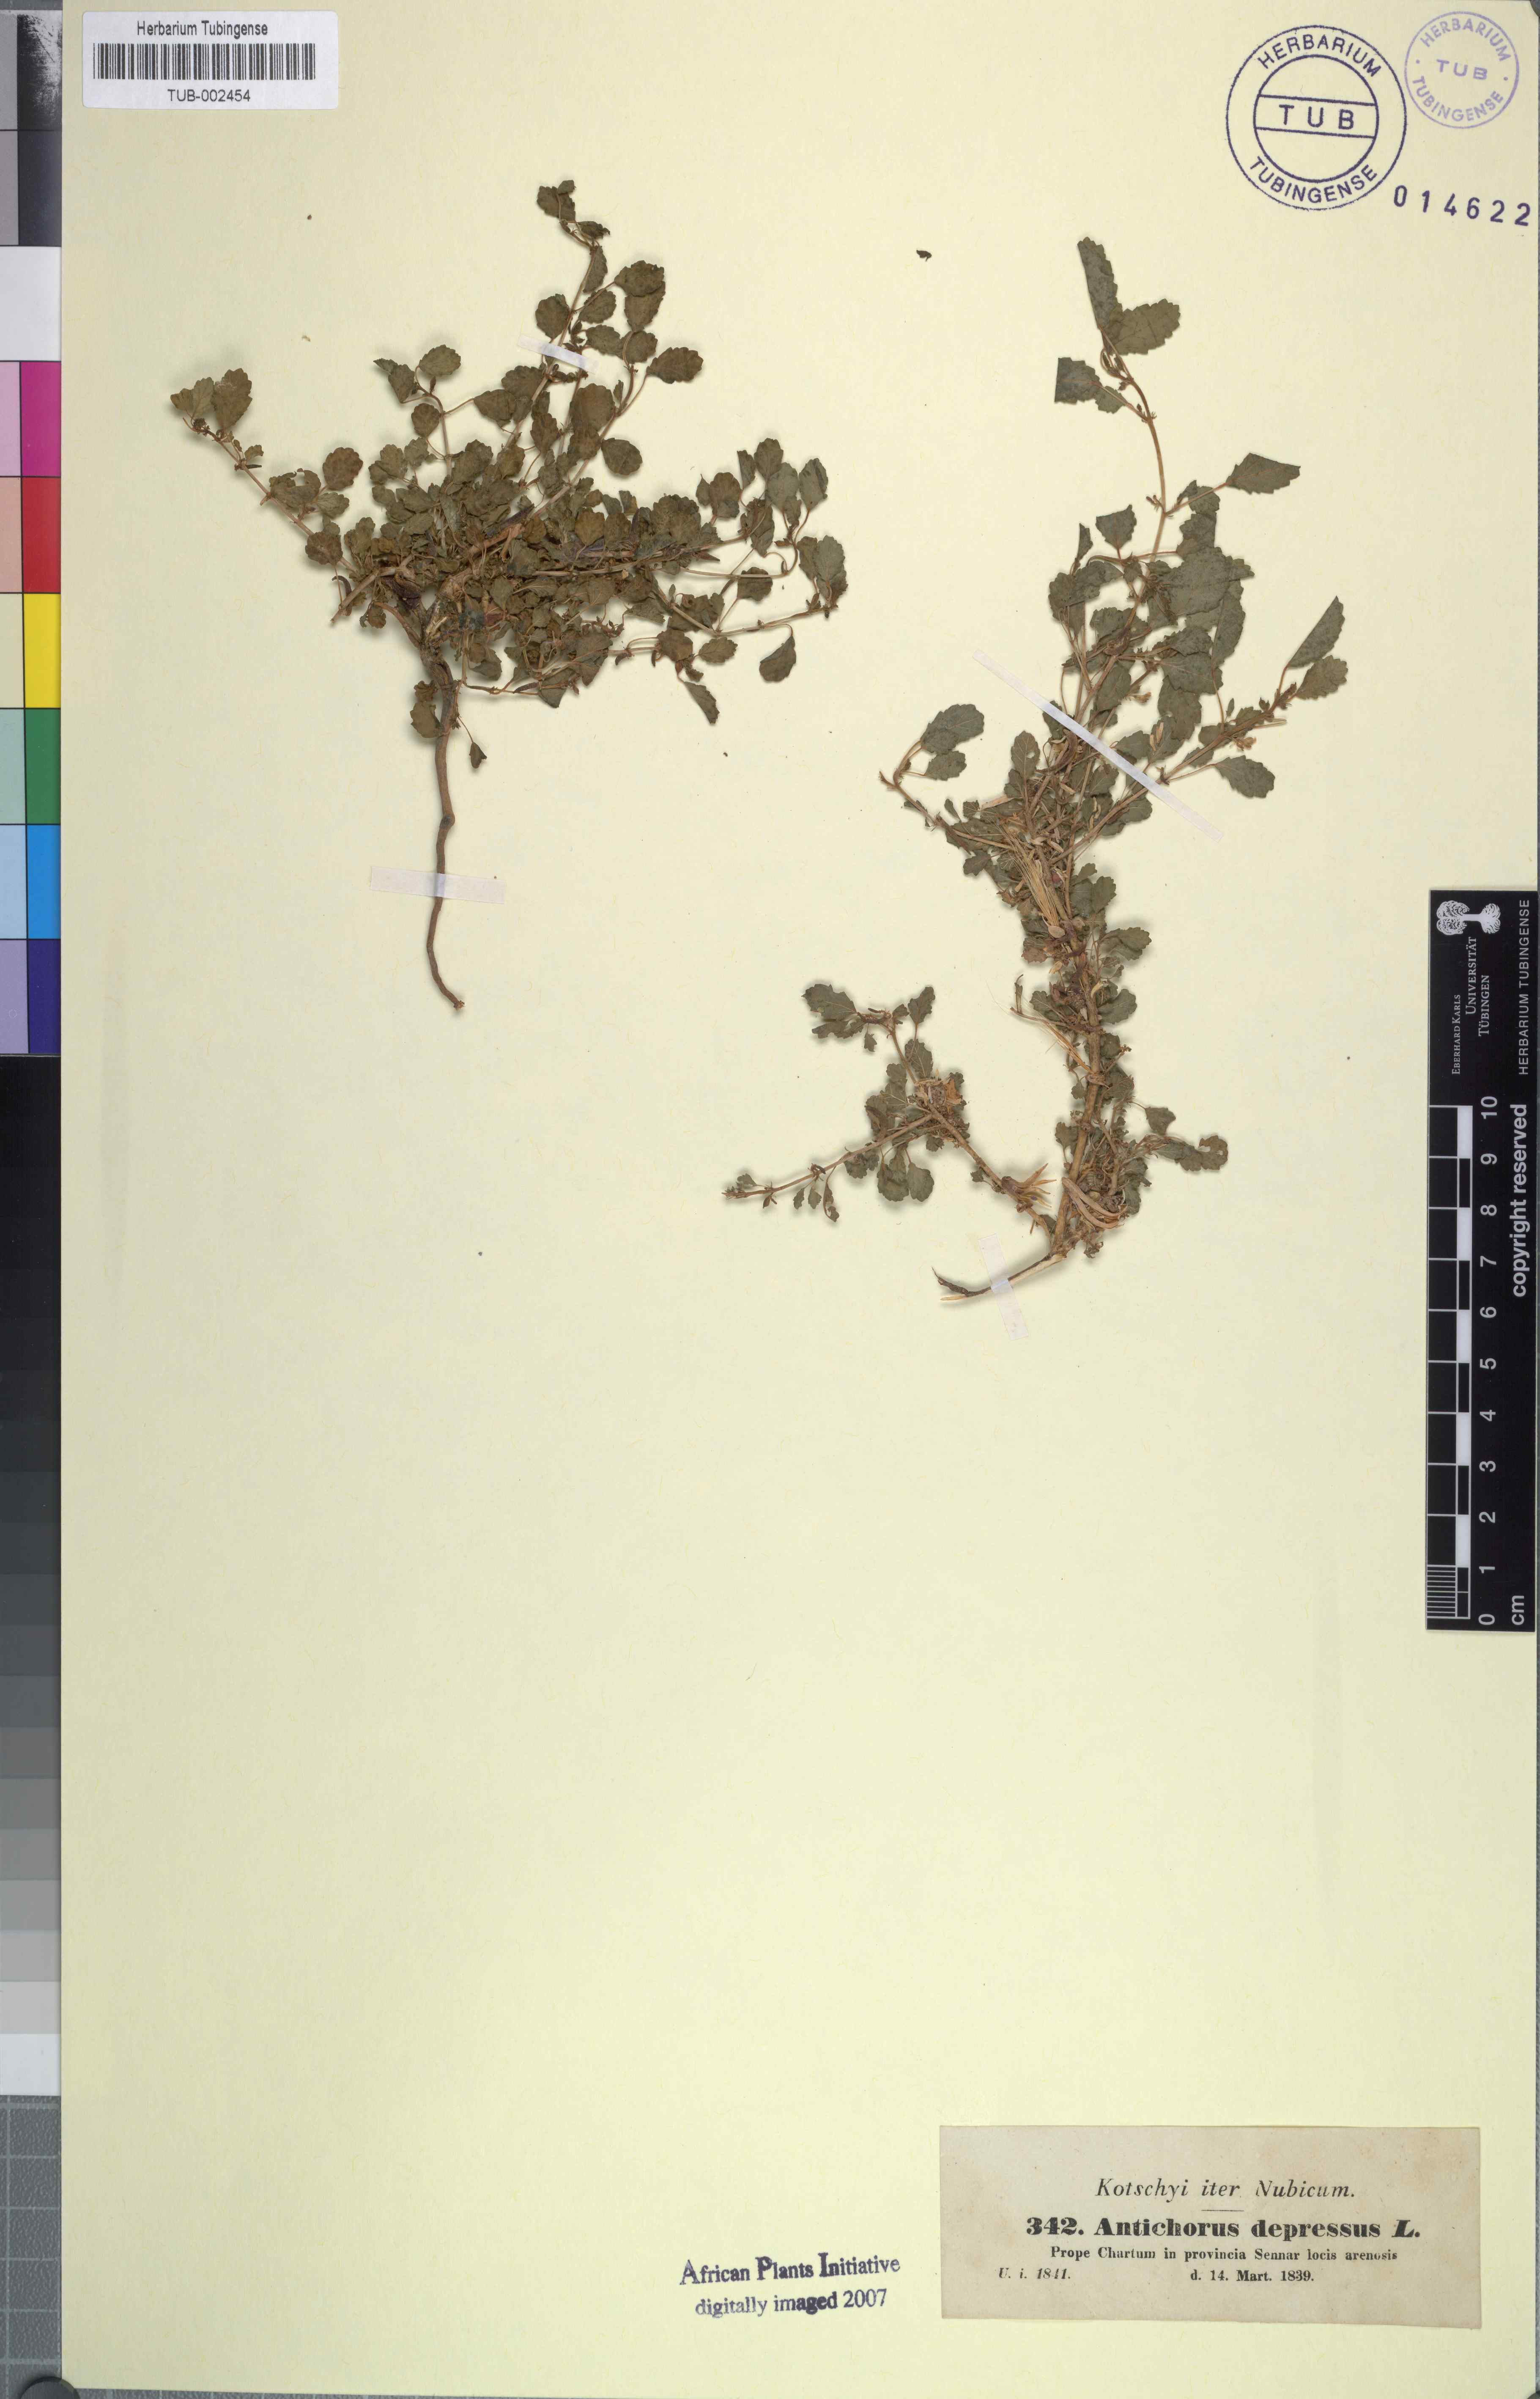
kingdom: Plantae
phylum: Tracheophyta
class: Magnoliopsida
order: Malvales
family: Malvaceae
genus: Corchorus
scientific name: Corchorus depressus
